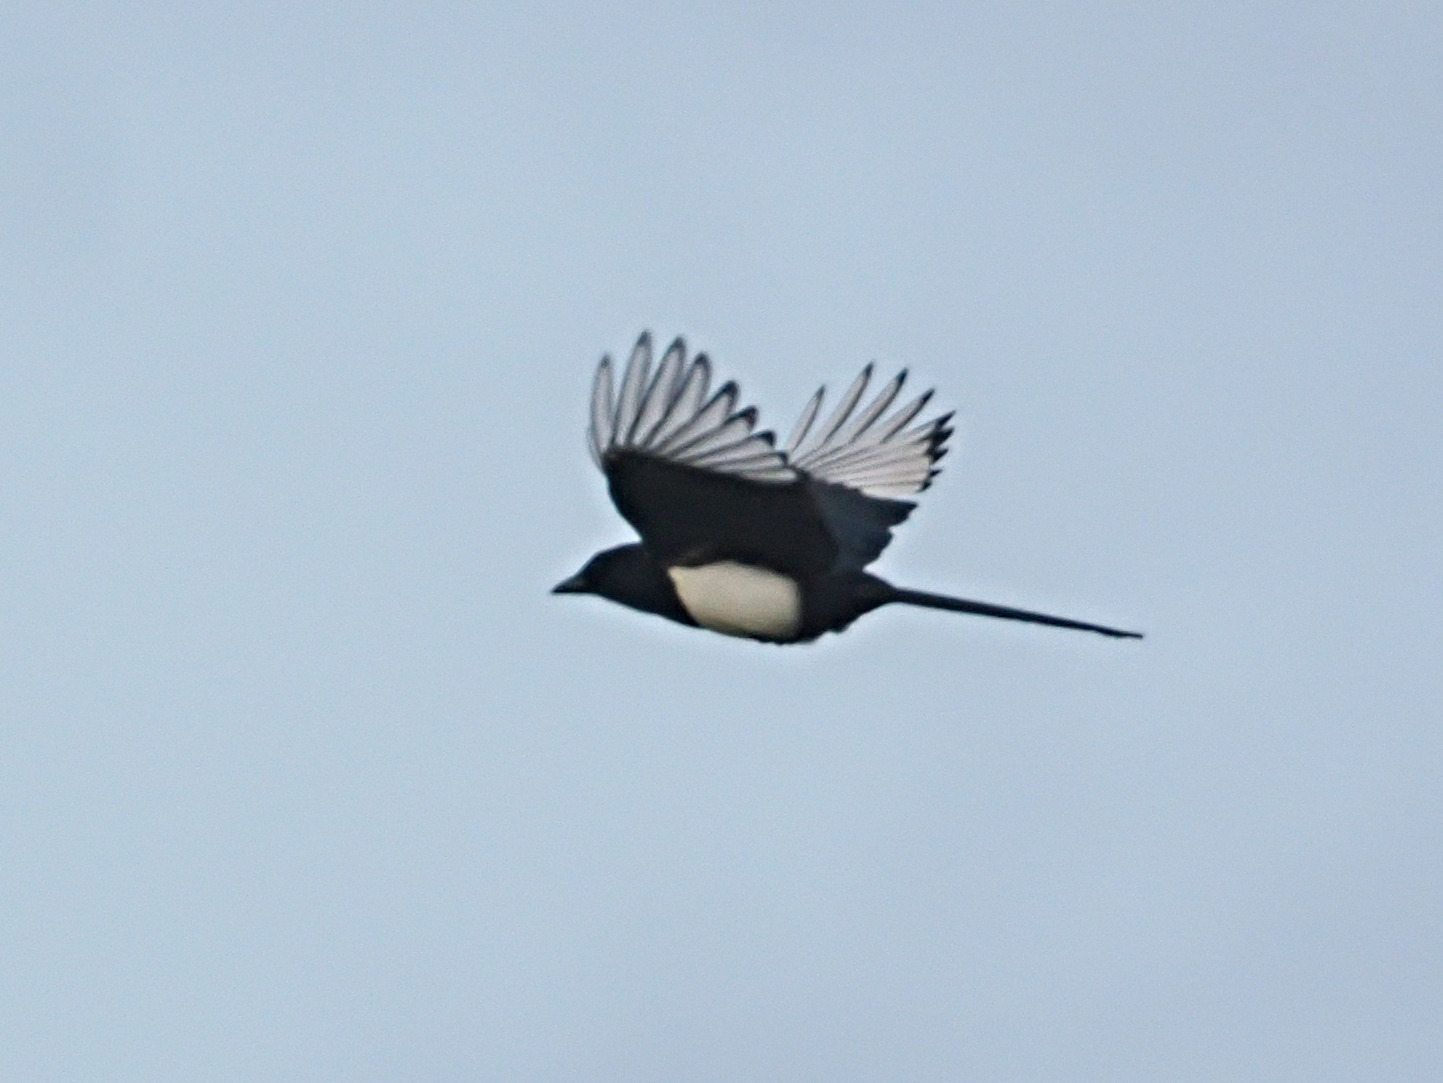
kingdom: Animalia
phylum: Chordata
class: Aves
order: Passeriformes
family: Corvidae
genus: Pica
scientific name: Pica pica
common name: Husskade
